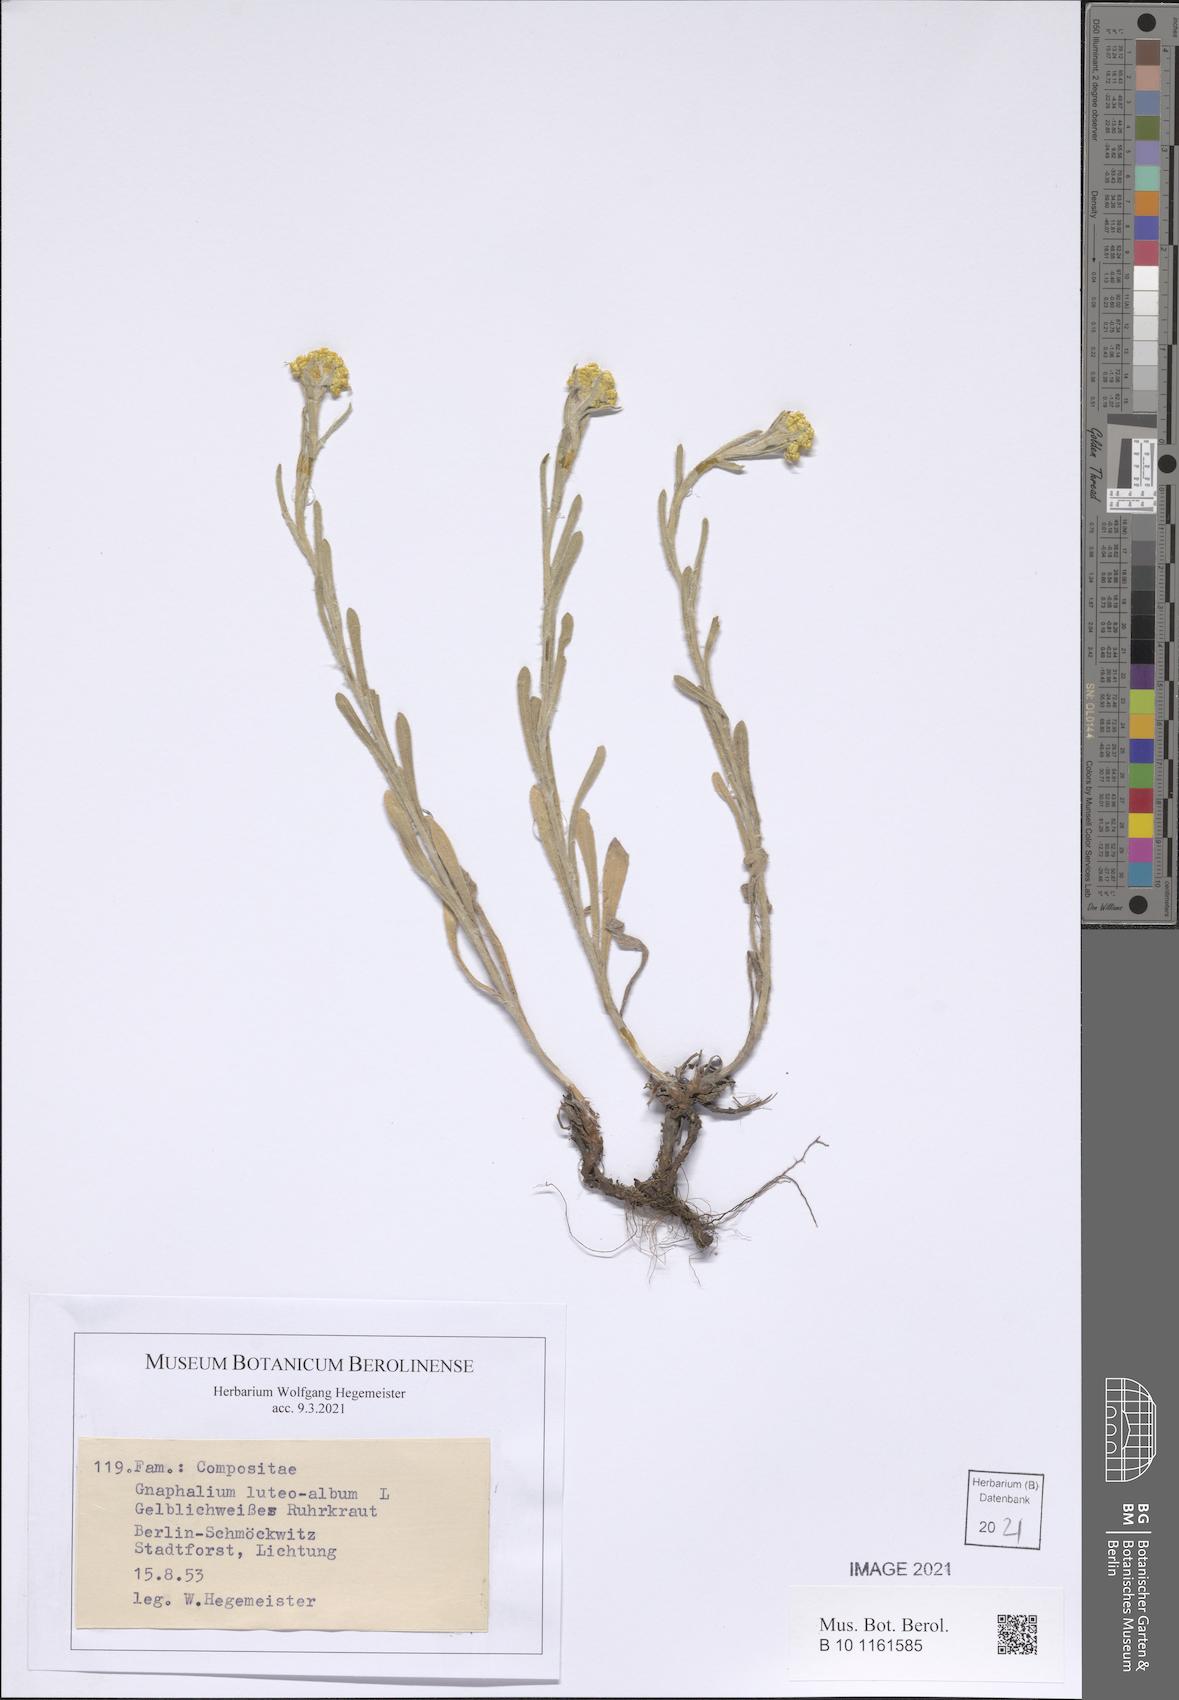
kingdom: Plantae
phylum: Tracheophyta
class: Magnoliopsida
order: Asterales
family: Asteraceae
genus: Helichrysum
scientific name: Helichrysum luteoalbum
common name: Daisy
